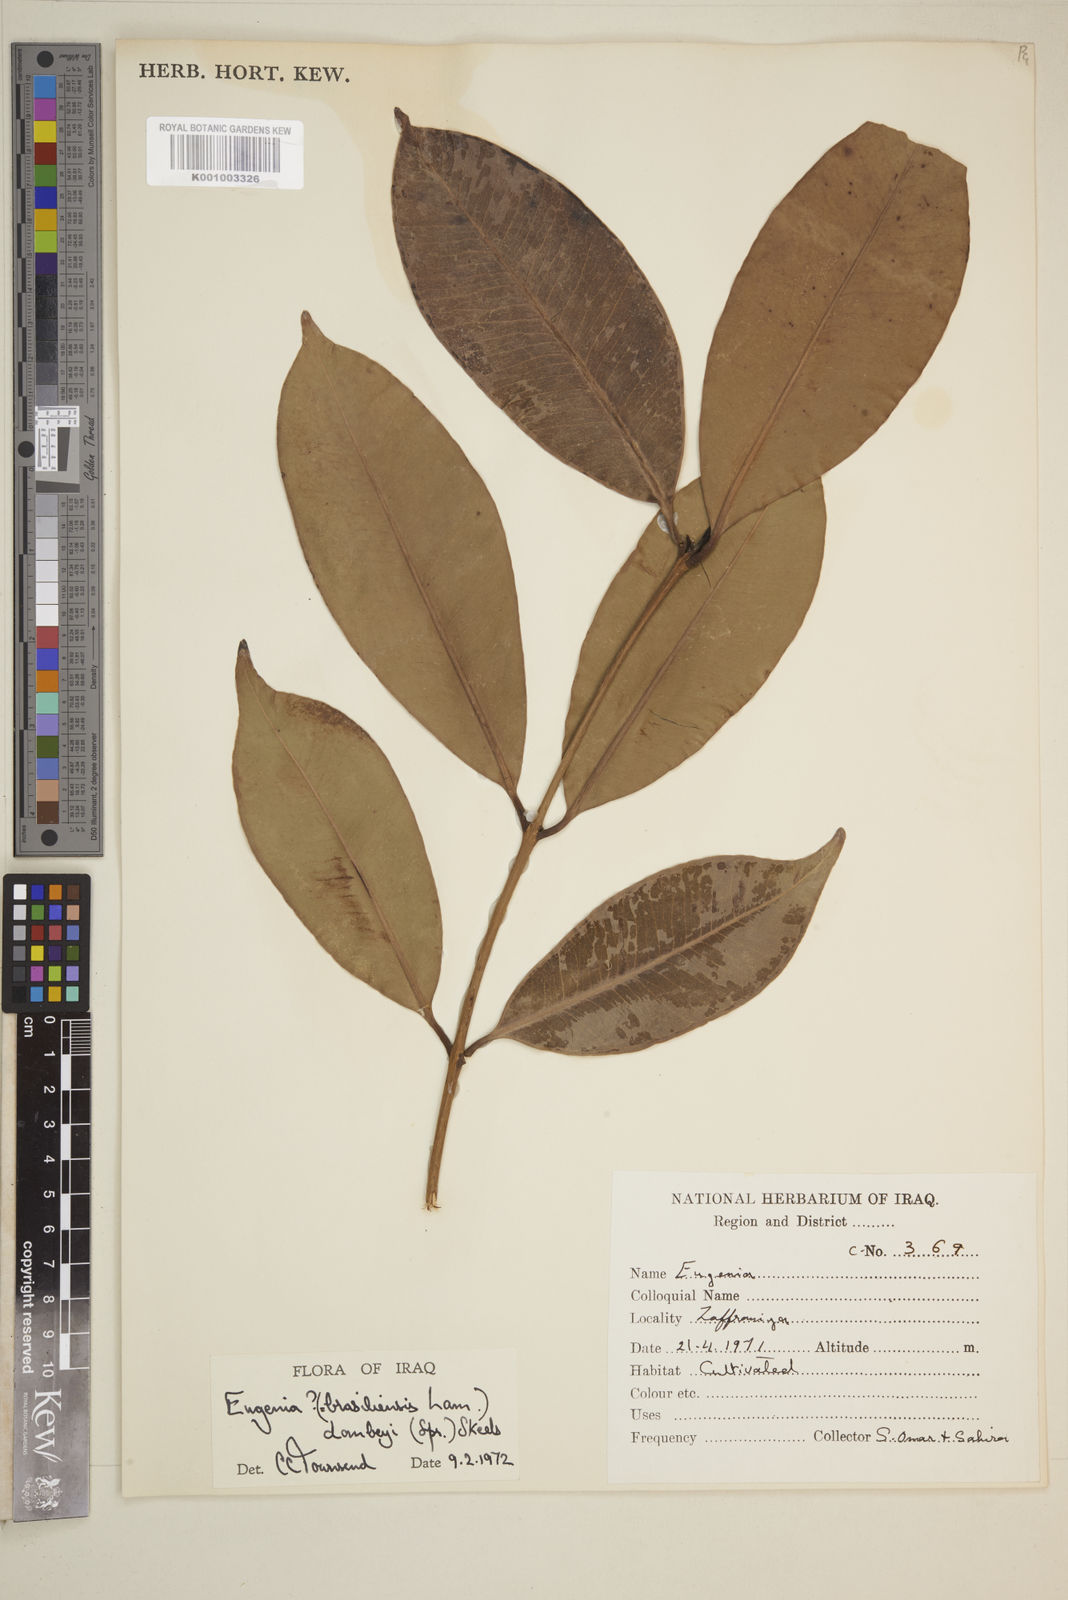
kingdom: Plantae
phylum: Tracheophyta
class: Magnoliopsida
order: Myrtales
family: Myrtaceae
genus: Eugenia
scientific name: Eugenia brasiliensis
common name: Grumichama
